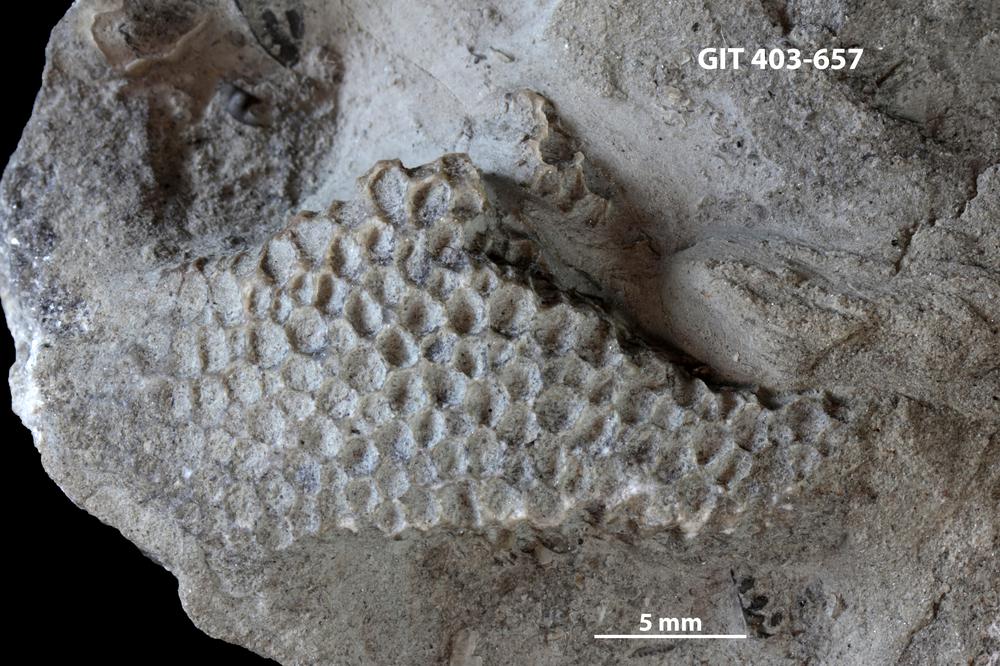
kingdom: Animalia
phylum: Cnidaria
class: Anthozoa
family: Favositidae
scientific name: Favositidae
